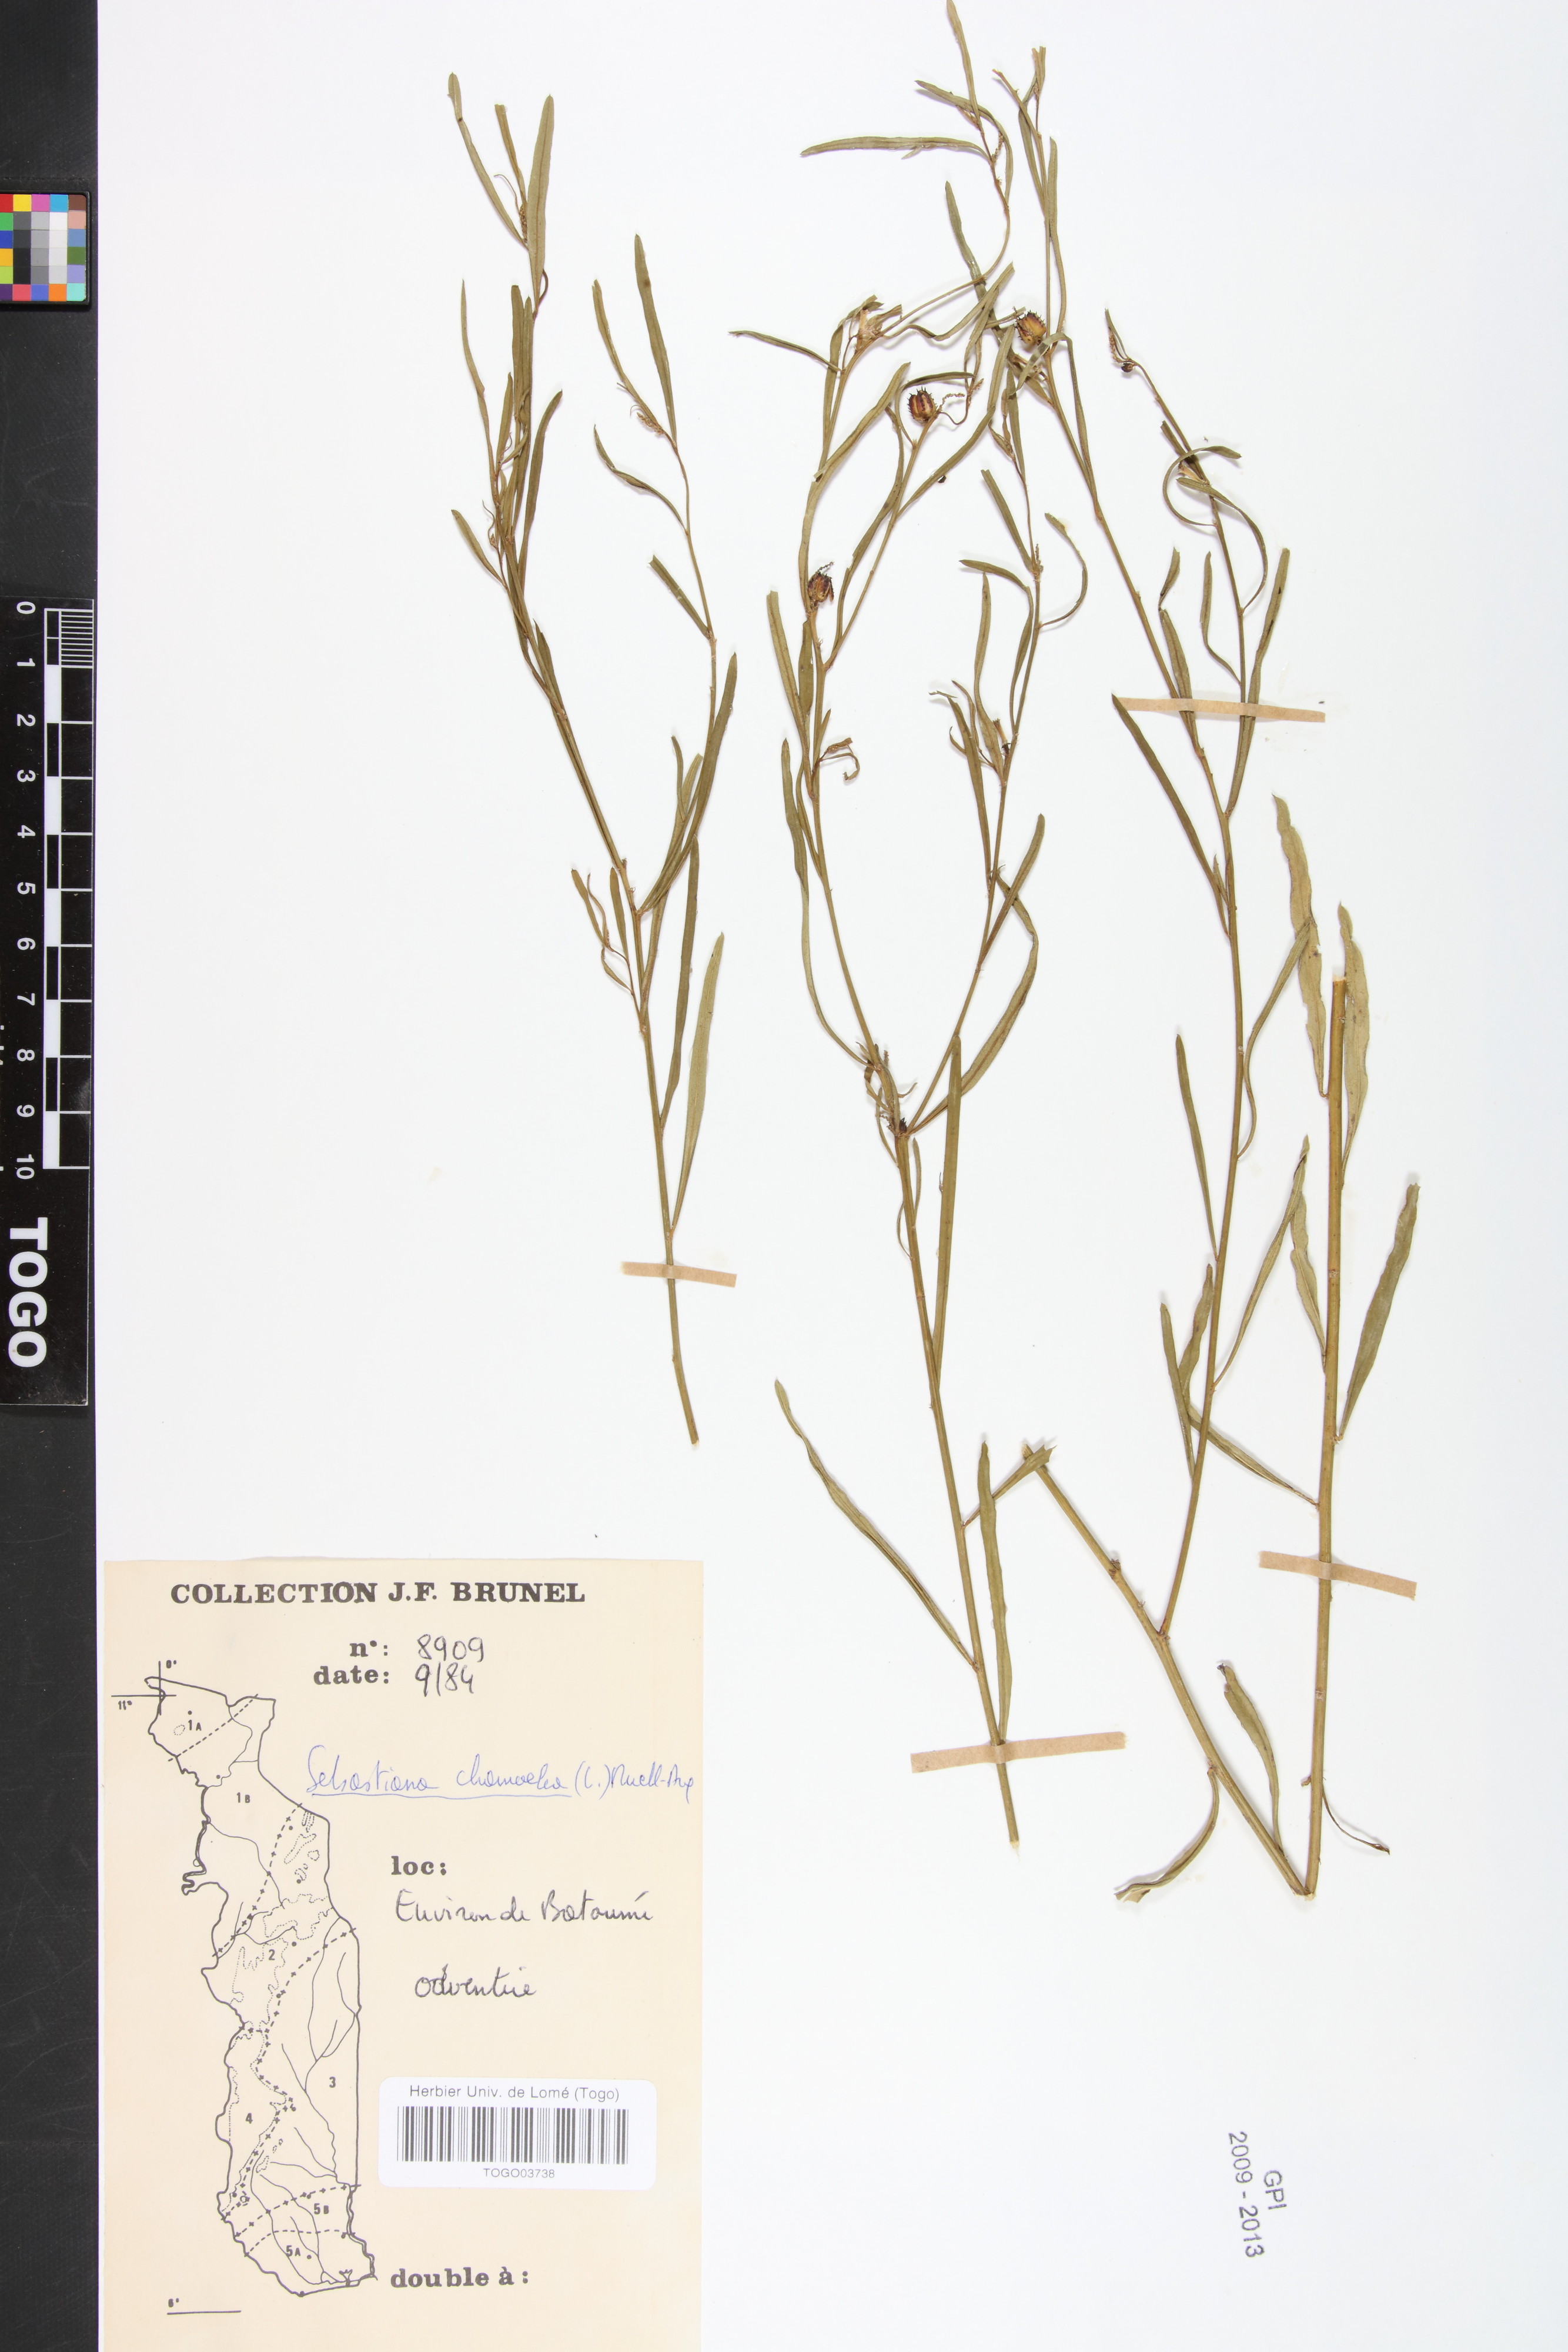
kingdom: Plantae
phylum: Tracheophyta
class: Magnoliopsida
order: Malpighiales
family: Euphorbiaceae
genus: Microstachys
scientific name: Microstachys chamaelea
